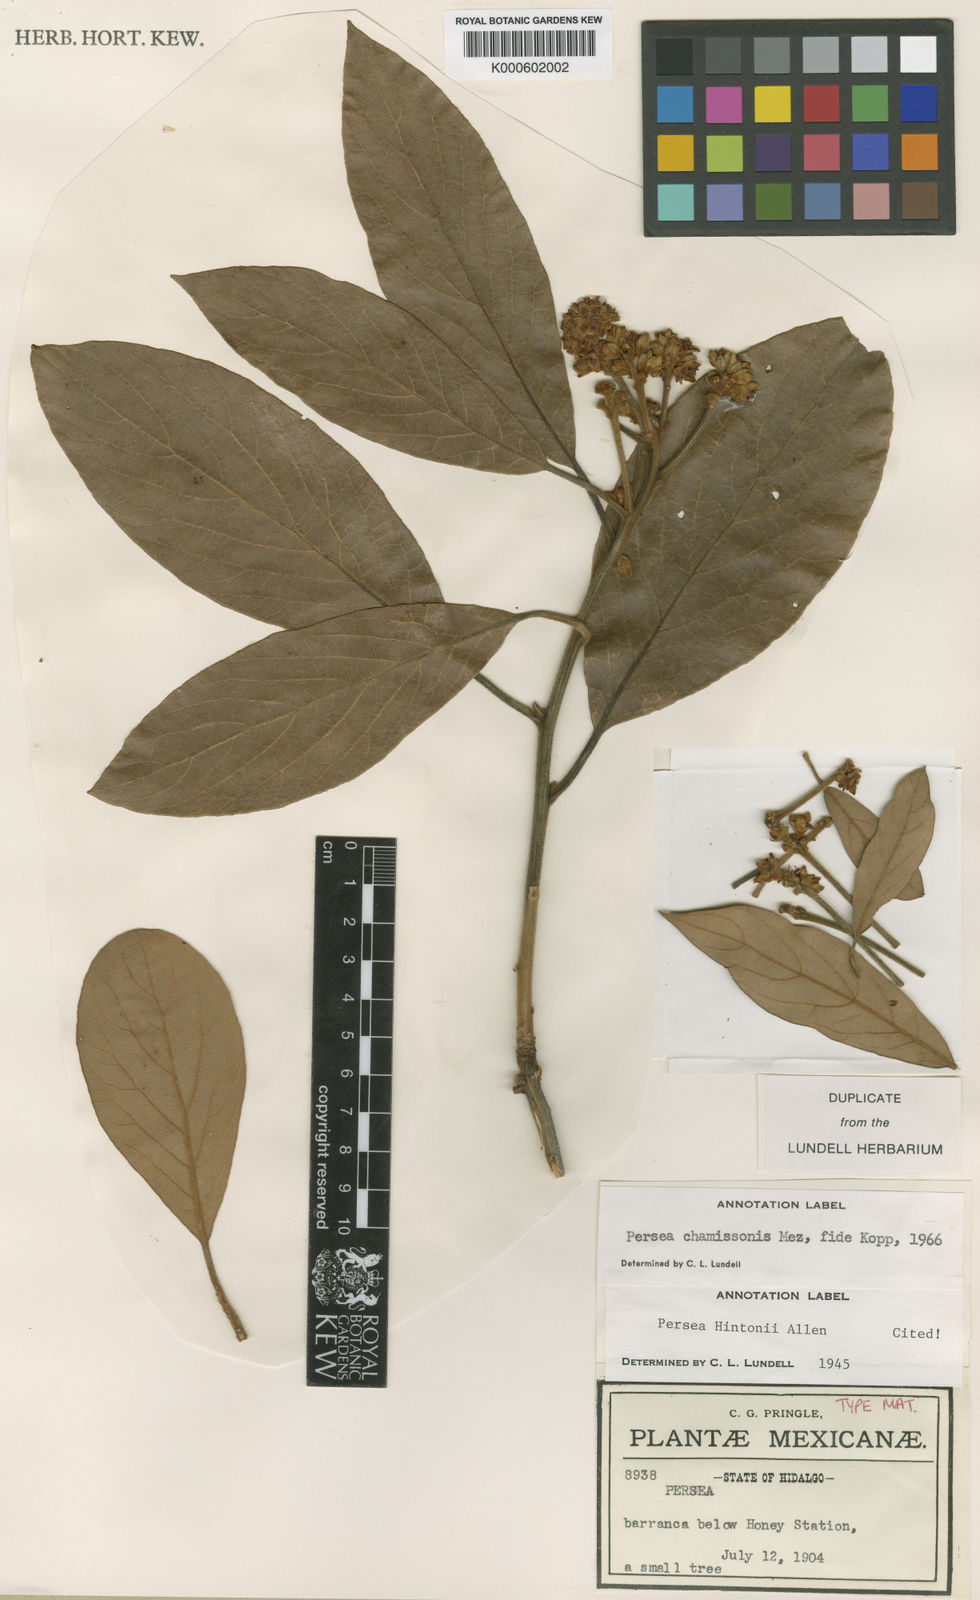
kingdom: Plantae
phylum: Tracheophyta
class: Magnoliopsida
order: Laurales
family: Lauraceae
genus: Persea
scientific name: Persea chamissonis
